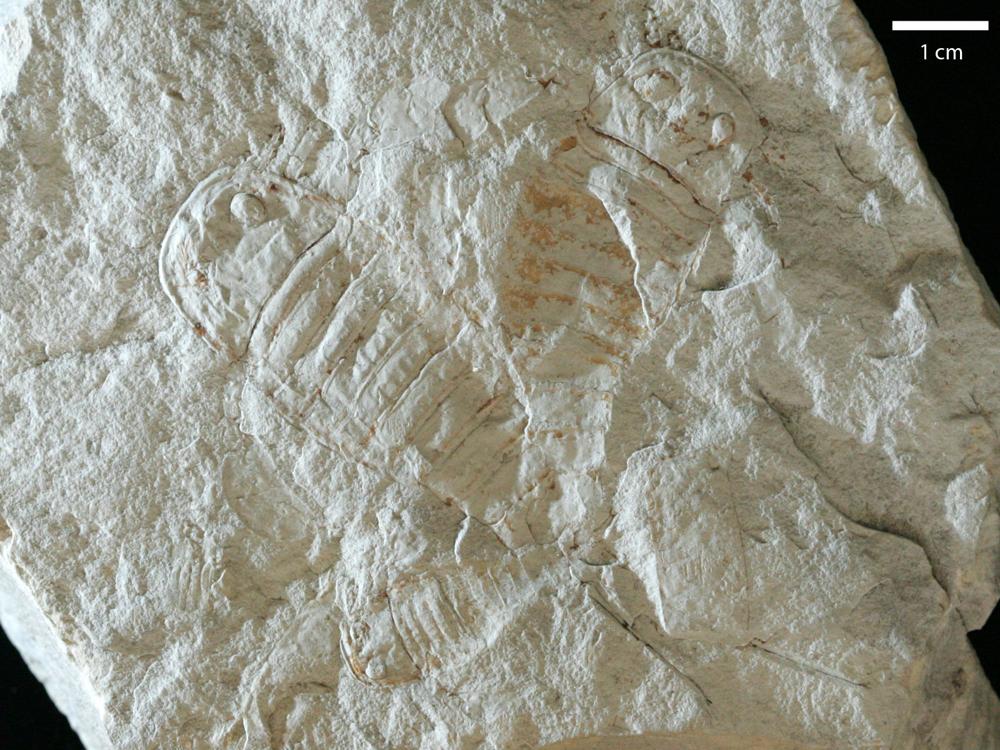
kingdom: Animalia
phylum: Arthropoda
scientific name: Arthropoda
